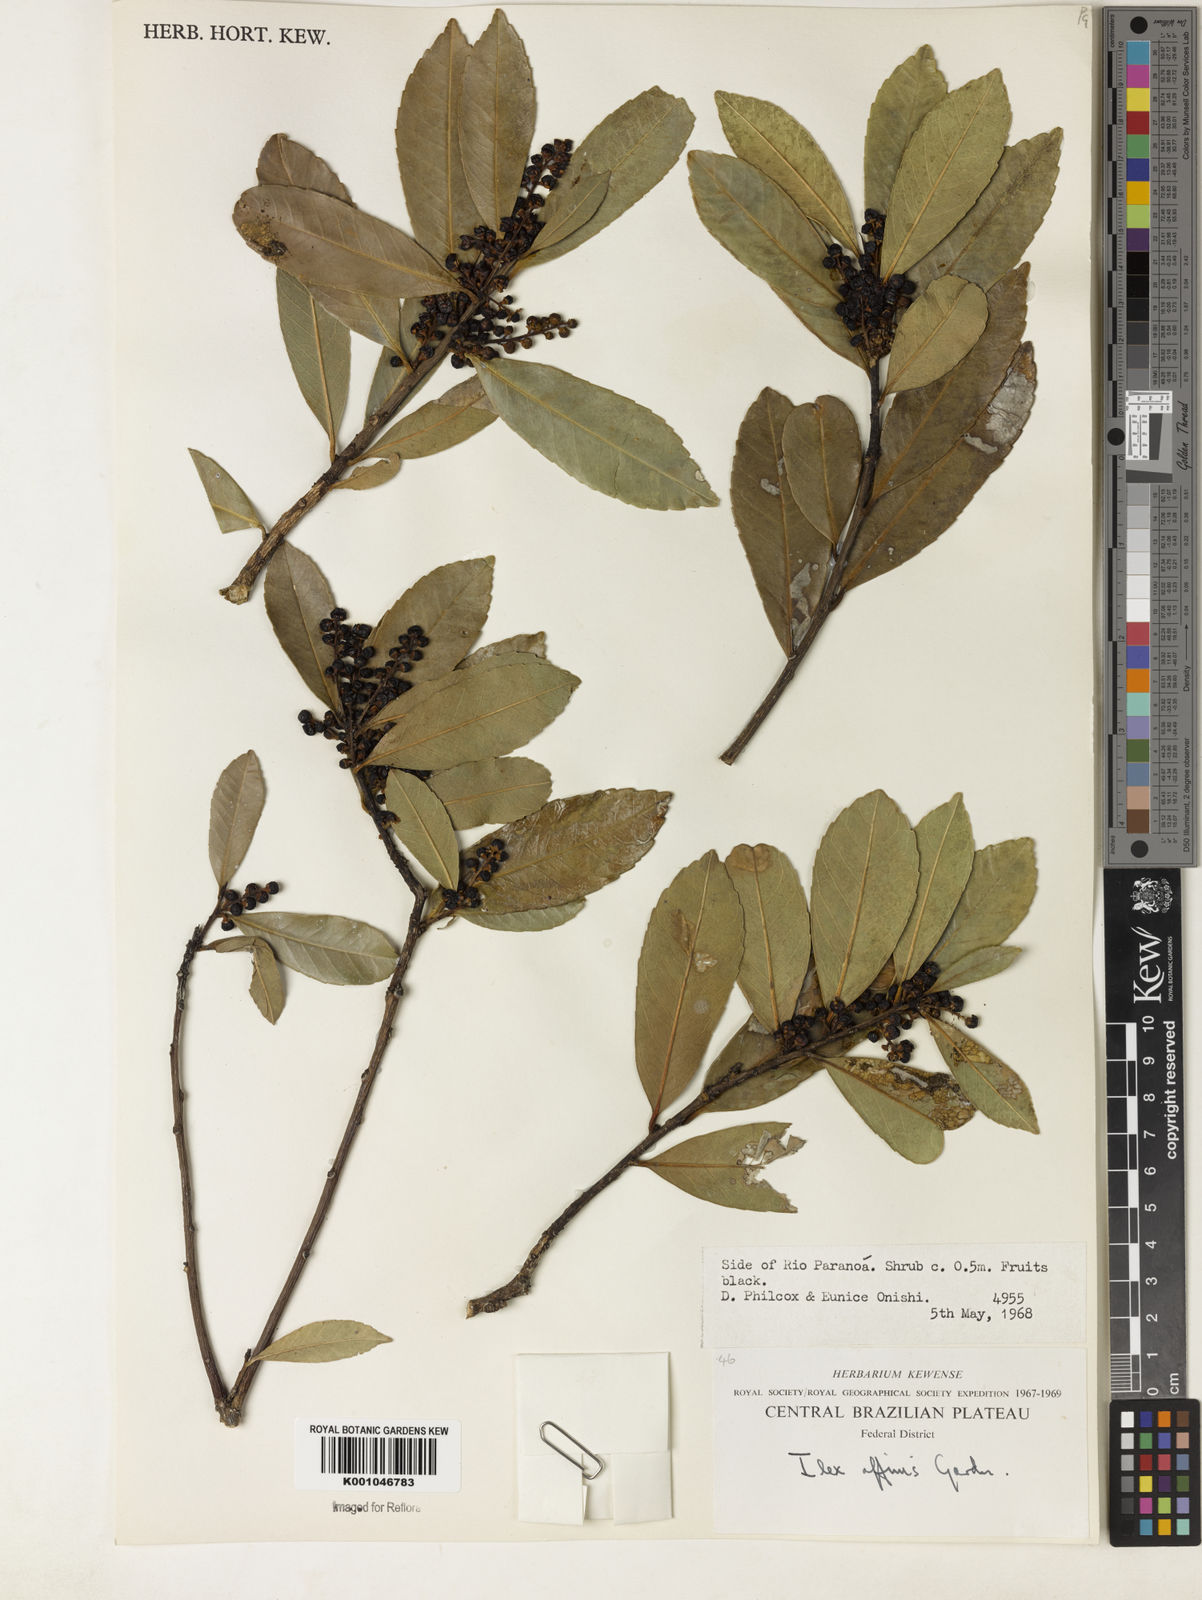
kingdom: Plantae
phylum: Tracheophyta
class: Magnoliopsida
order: Aquifoliales
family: Aquifoliaceae
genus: Ilex
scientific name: Ilex affinis
